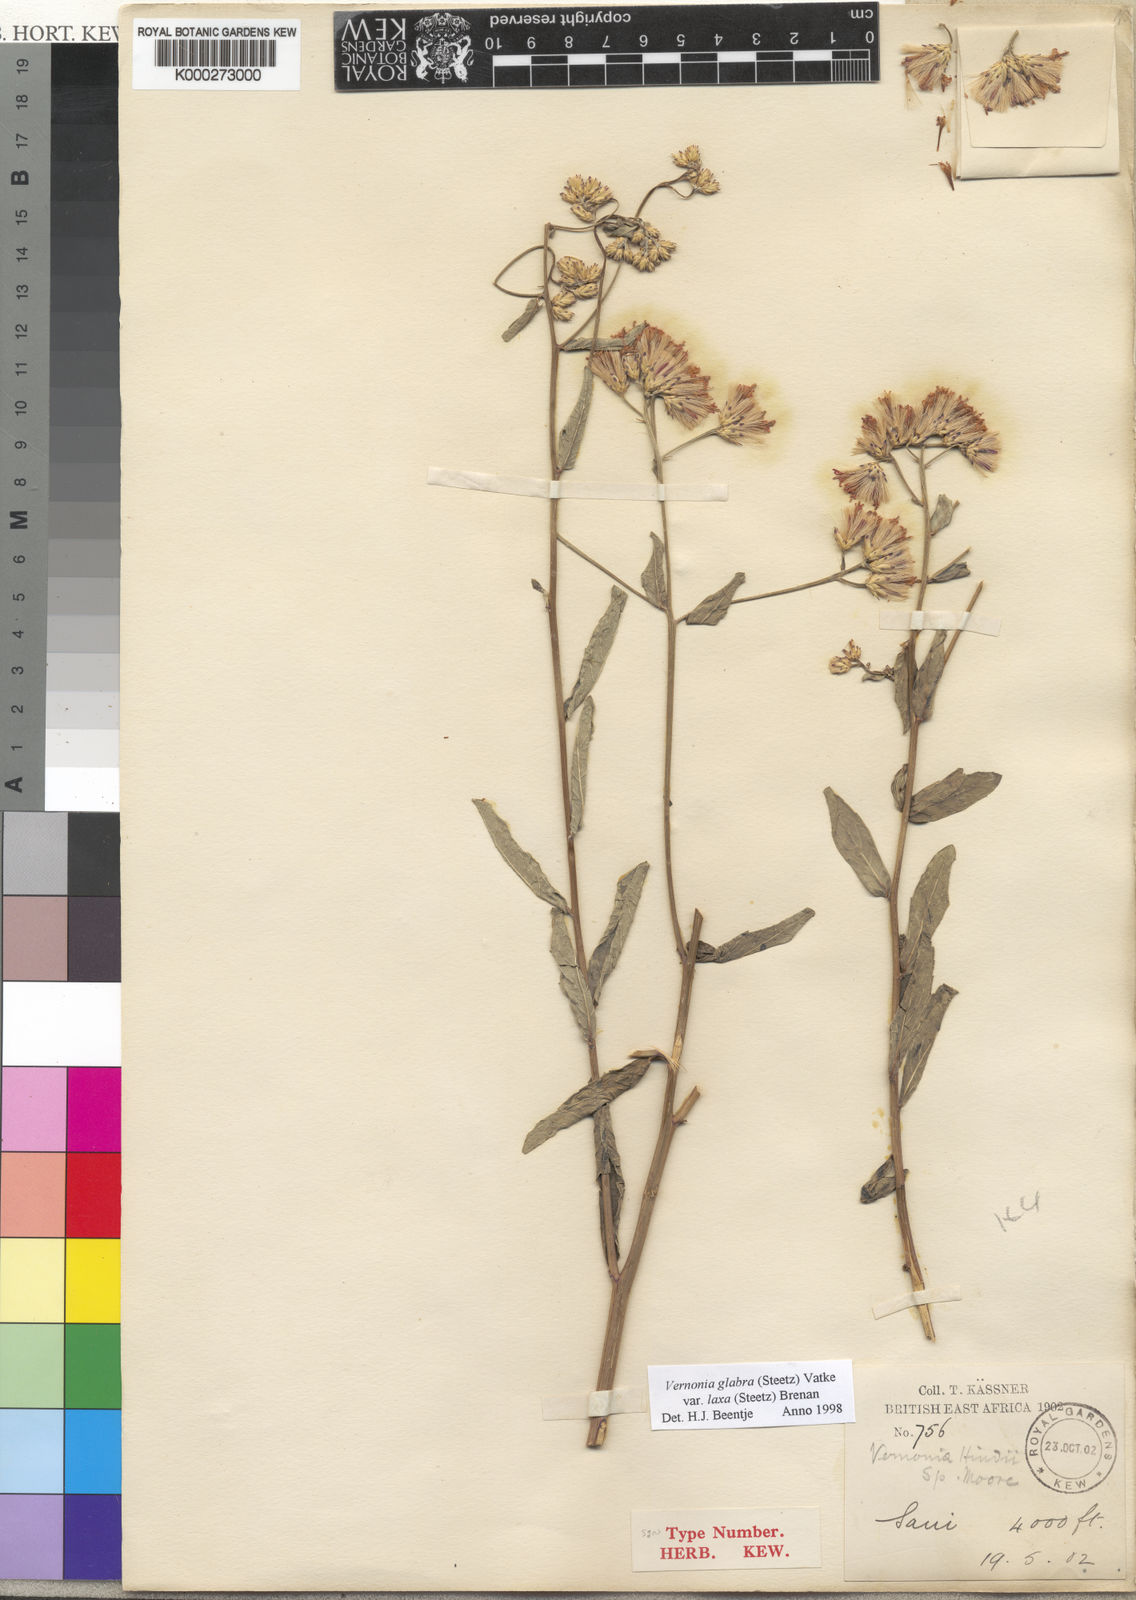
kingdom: Plantae
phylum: Tracheophyta
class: Magnoliopsida
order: Asterales
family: Asteraceae
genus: Linzia
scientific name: Linzia glabra
